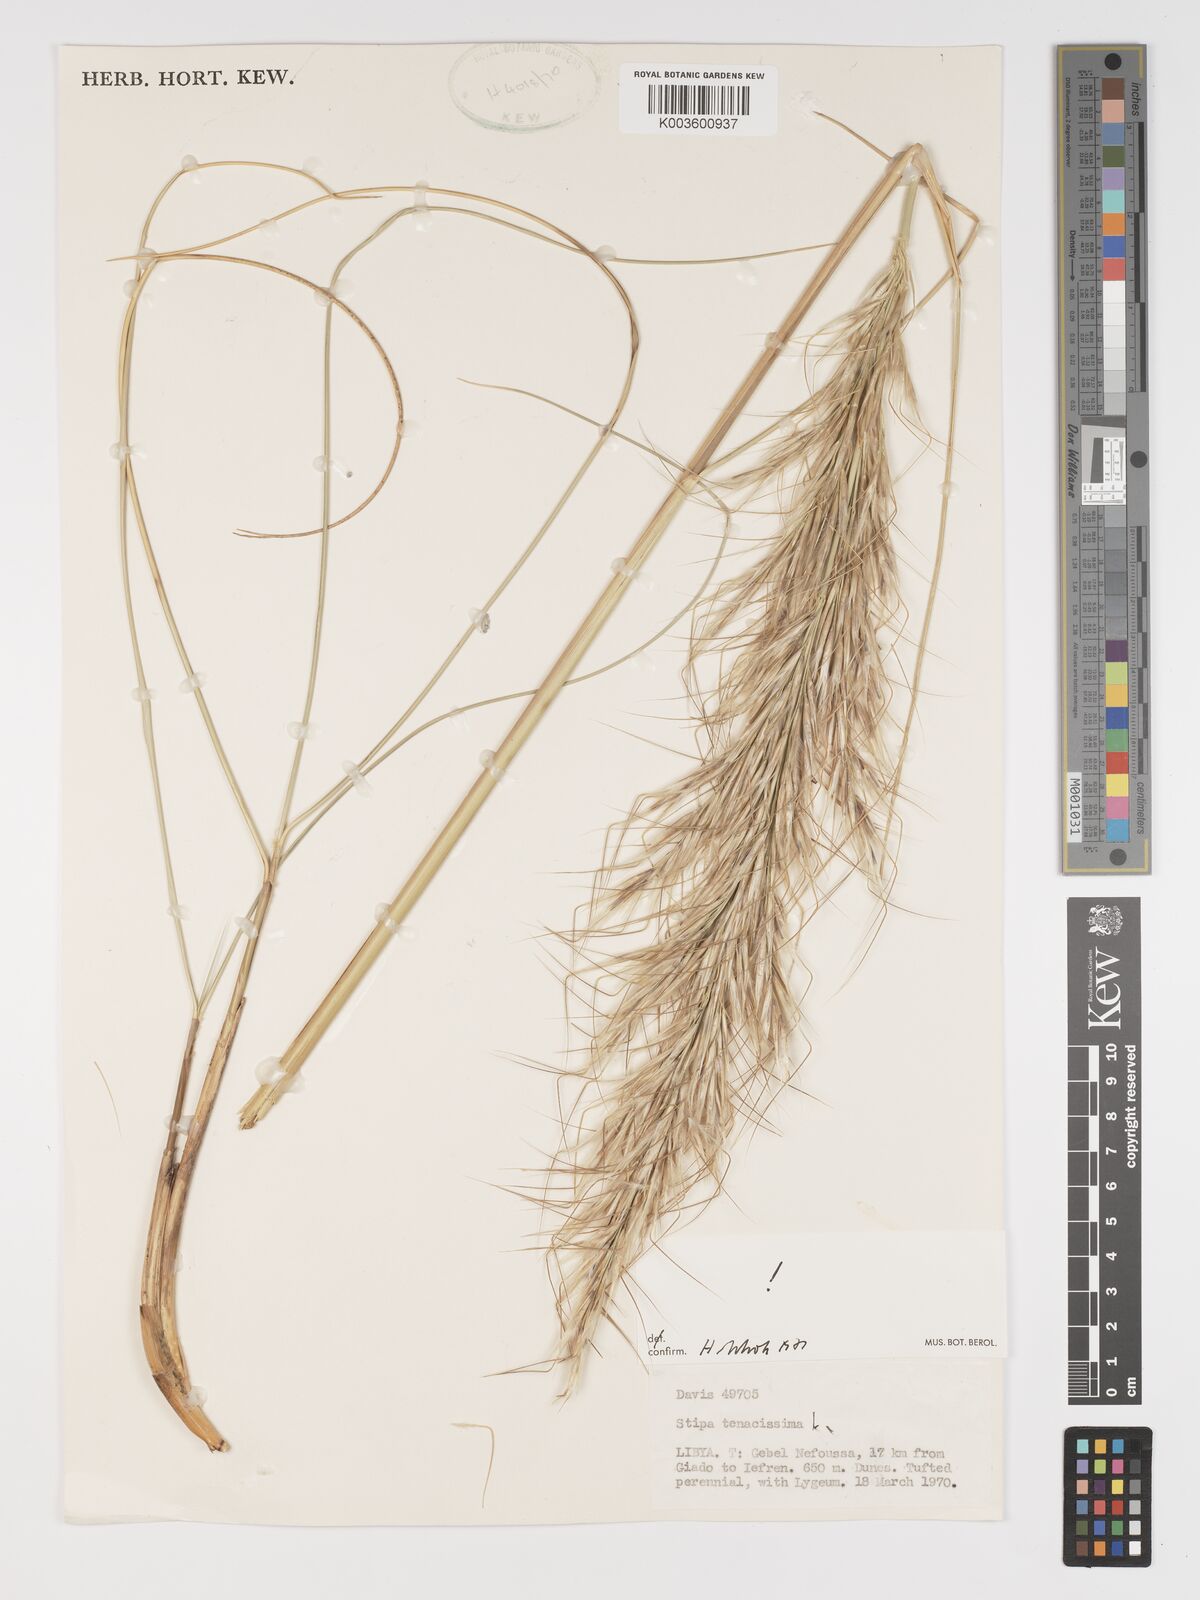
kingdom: Plantae
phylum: Tracheophyta
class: Liliopsida
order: Poales
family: Poaceae
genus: Macrochloa
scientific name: Macrochloa tenacissima
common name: Alfa grass
